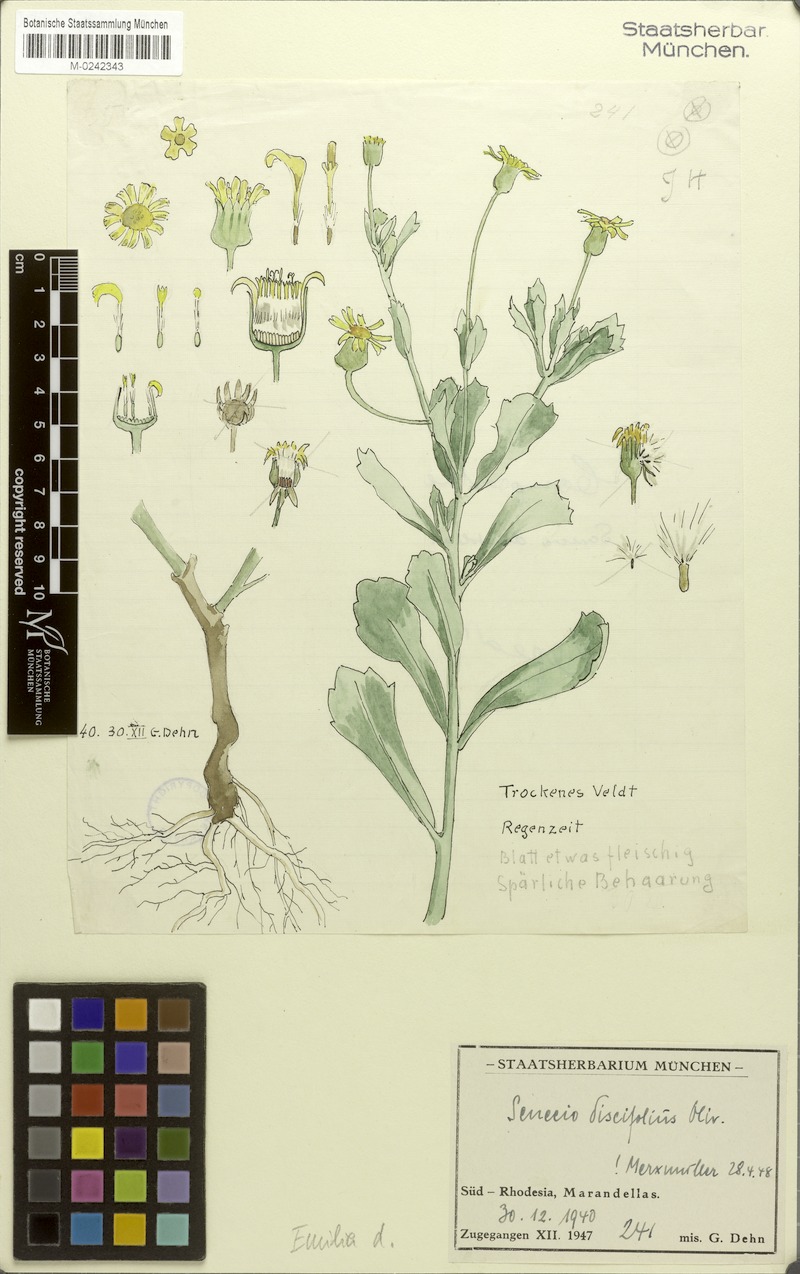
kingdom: Plantae
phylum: Tracheophyta
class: Magnoliopsida
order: Asterales
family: Asteraceae
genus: Emilia
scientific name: Emilia discifolia
